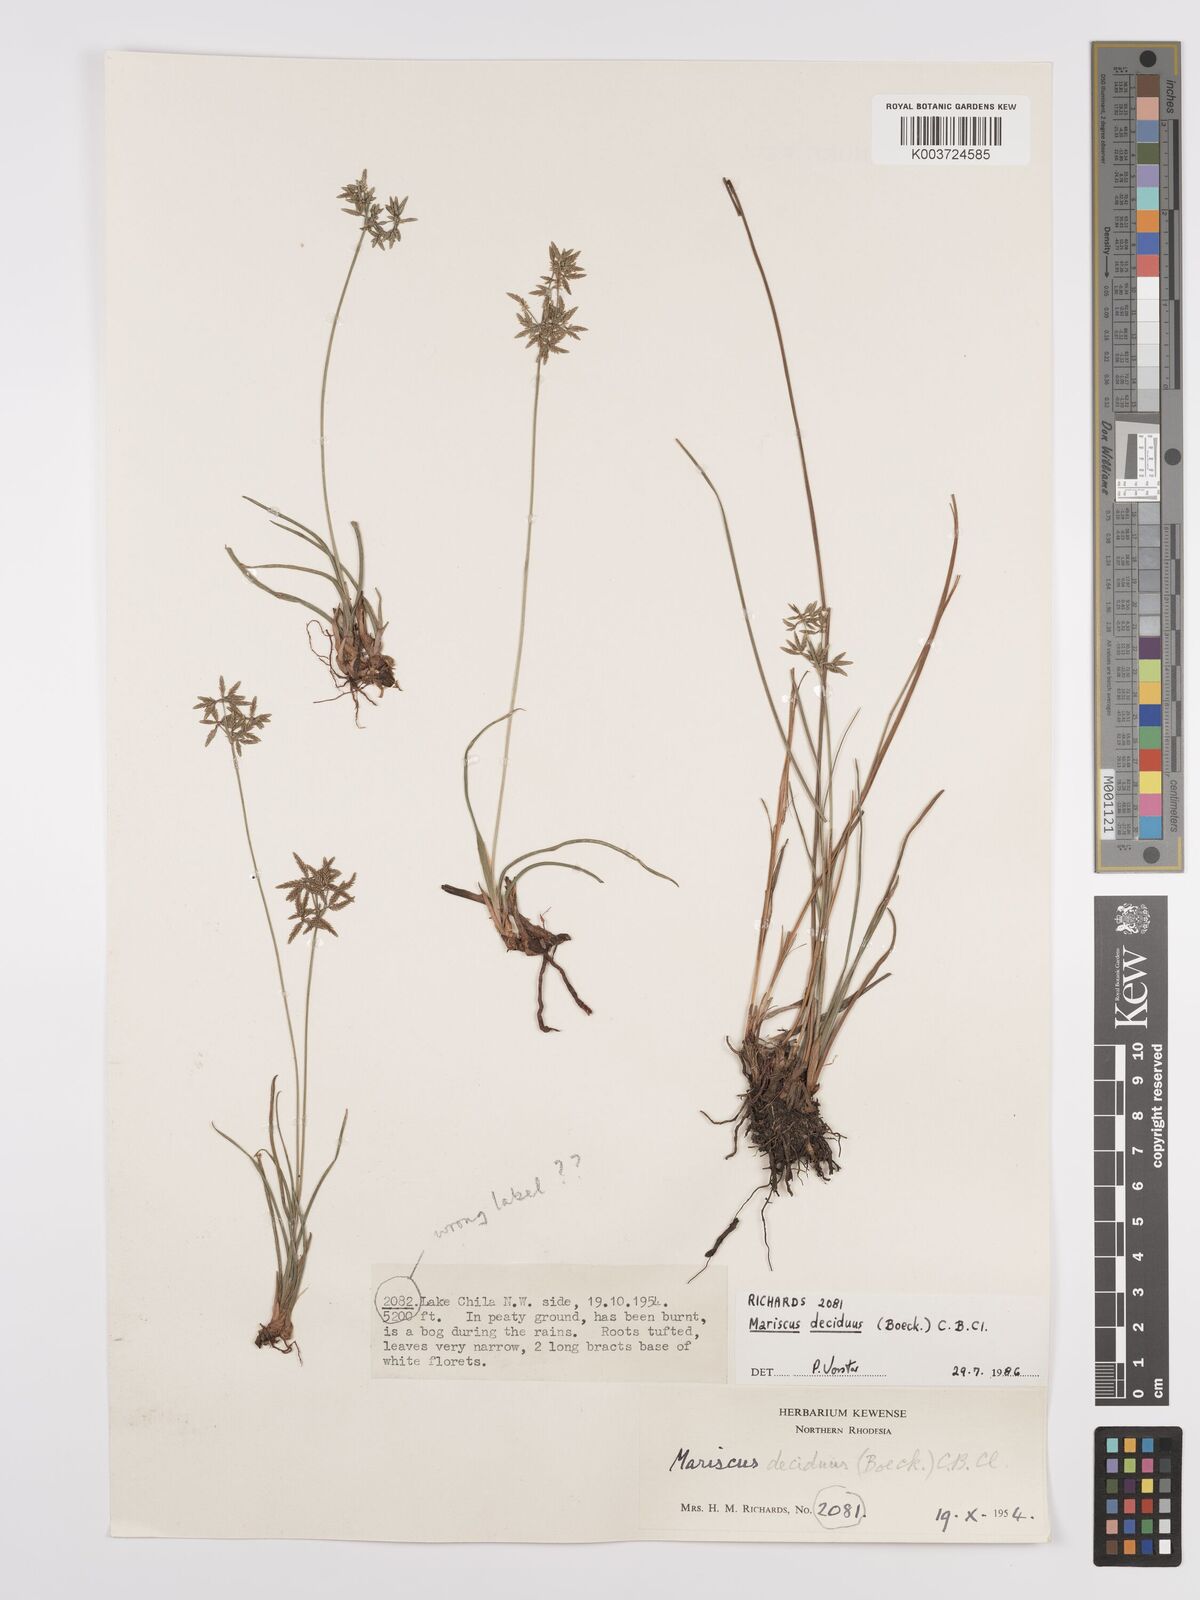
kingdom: Plantae
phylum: Tracheophyta
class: Liliopsida
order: Poales
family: Cyperaceae
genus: Cyperus
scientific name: Cyperus deciduus
